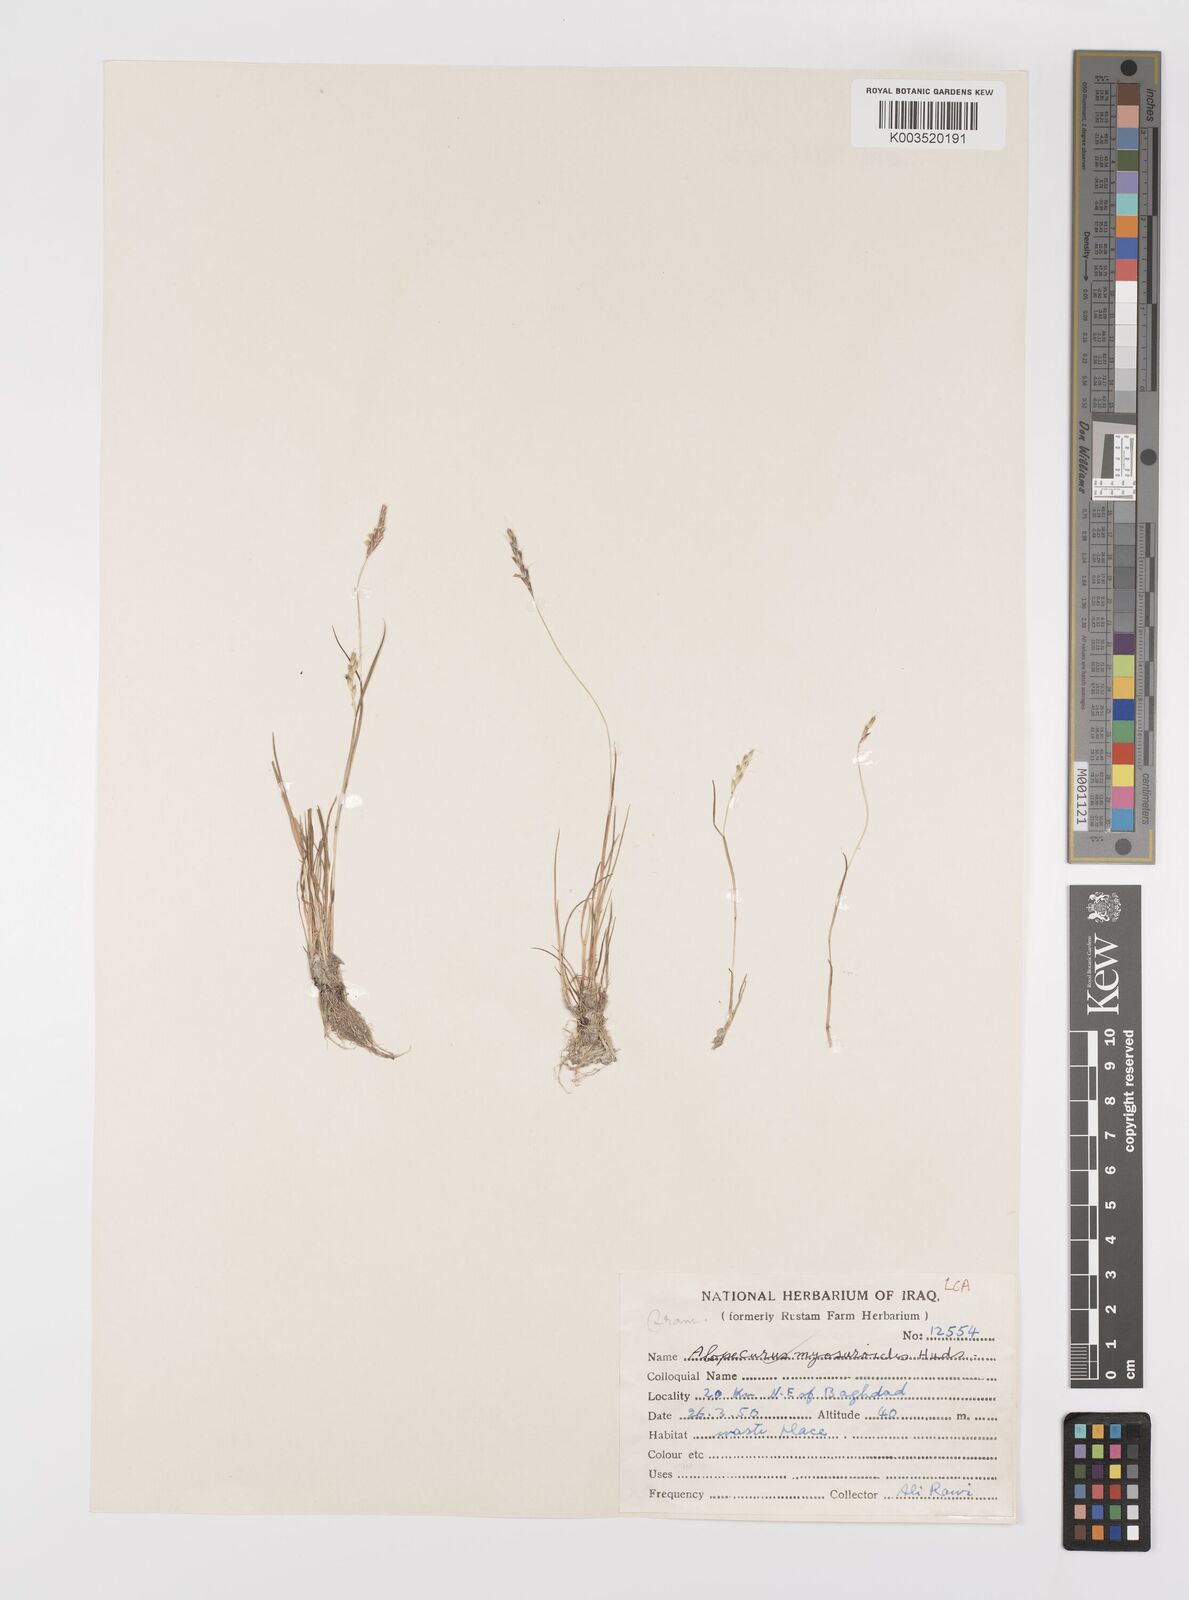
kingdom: Plantae
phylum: Tracheophyta
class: Liliopsida
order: Poales
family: Poaceae
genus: Alopecurus
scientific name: Alopecurus myosuroides
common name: Black-grass
